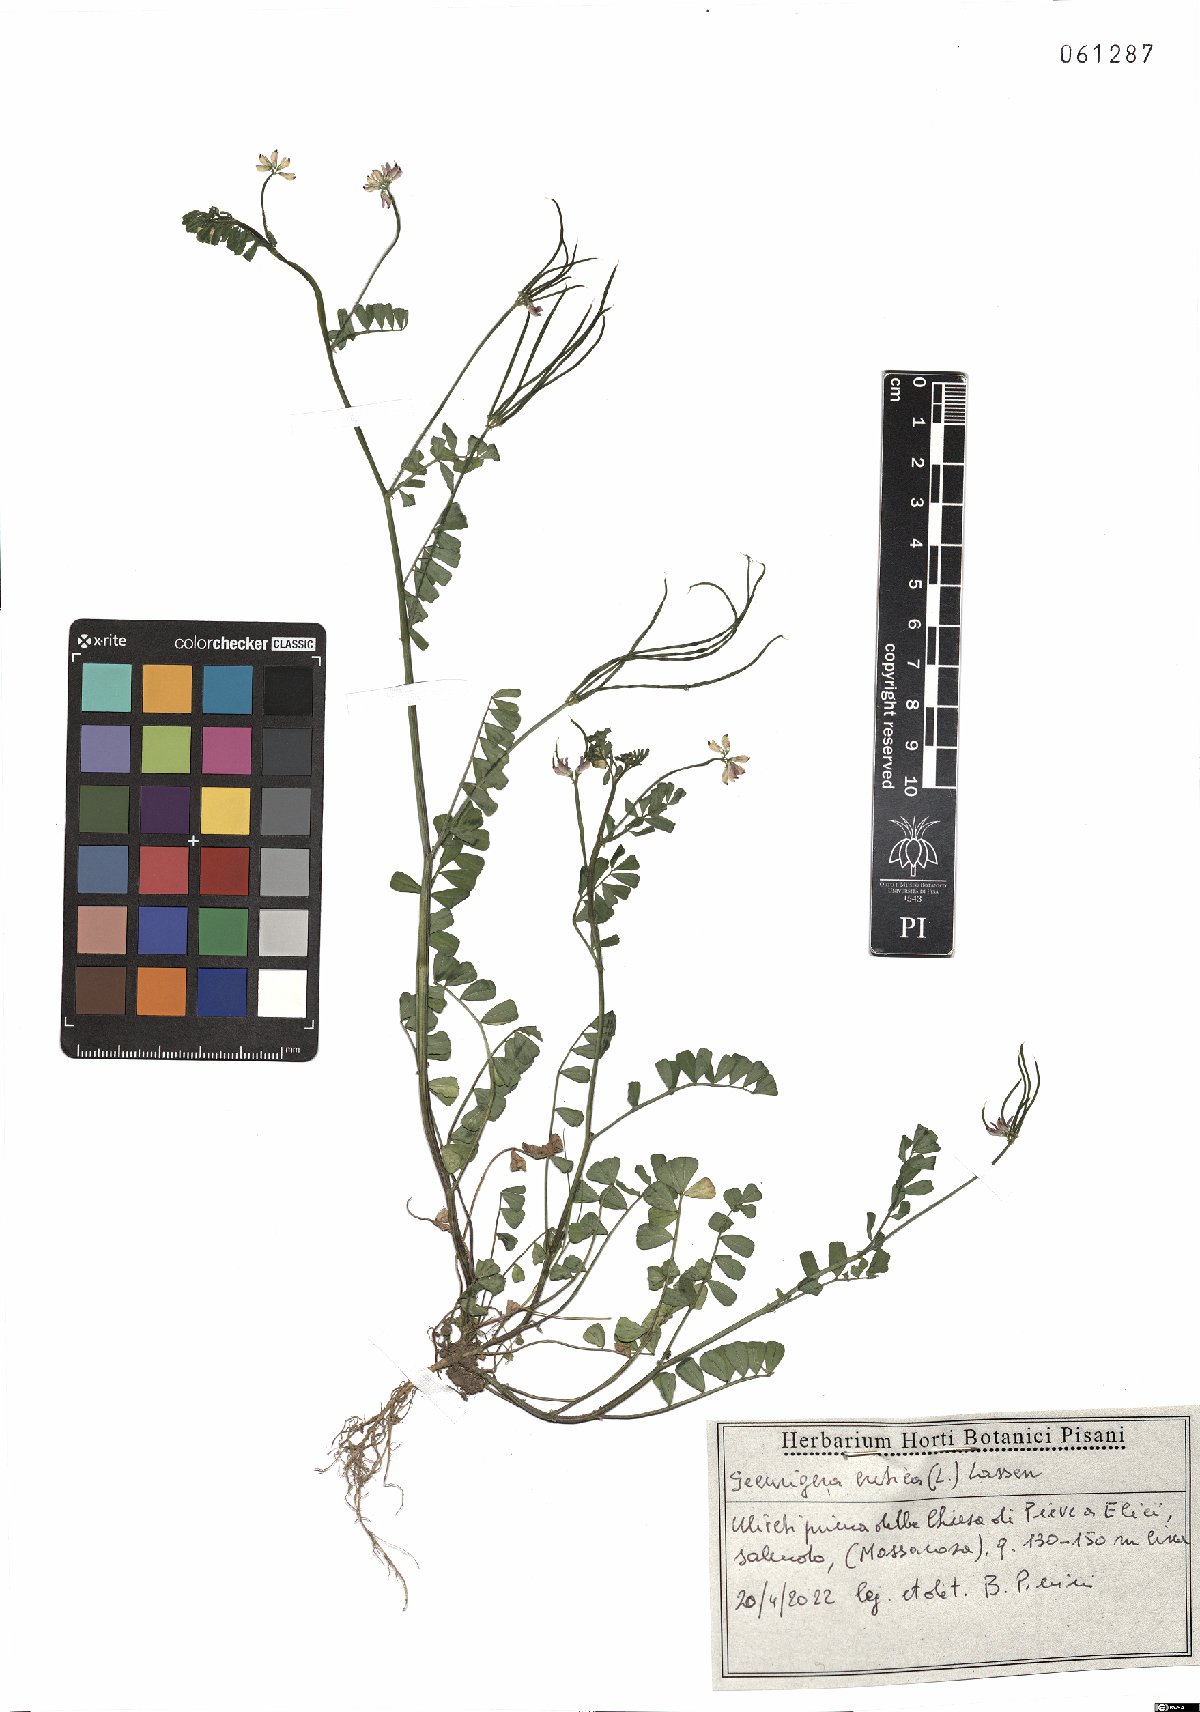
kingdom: Plantae
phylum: Tracheophyta
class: Magnoliopsida
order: Fabales
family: Fabaceae
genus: Coronilla
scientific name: Coronilla cretica
